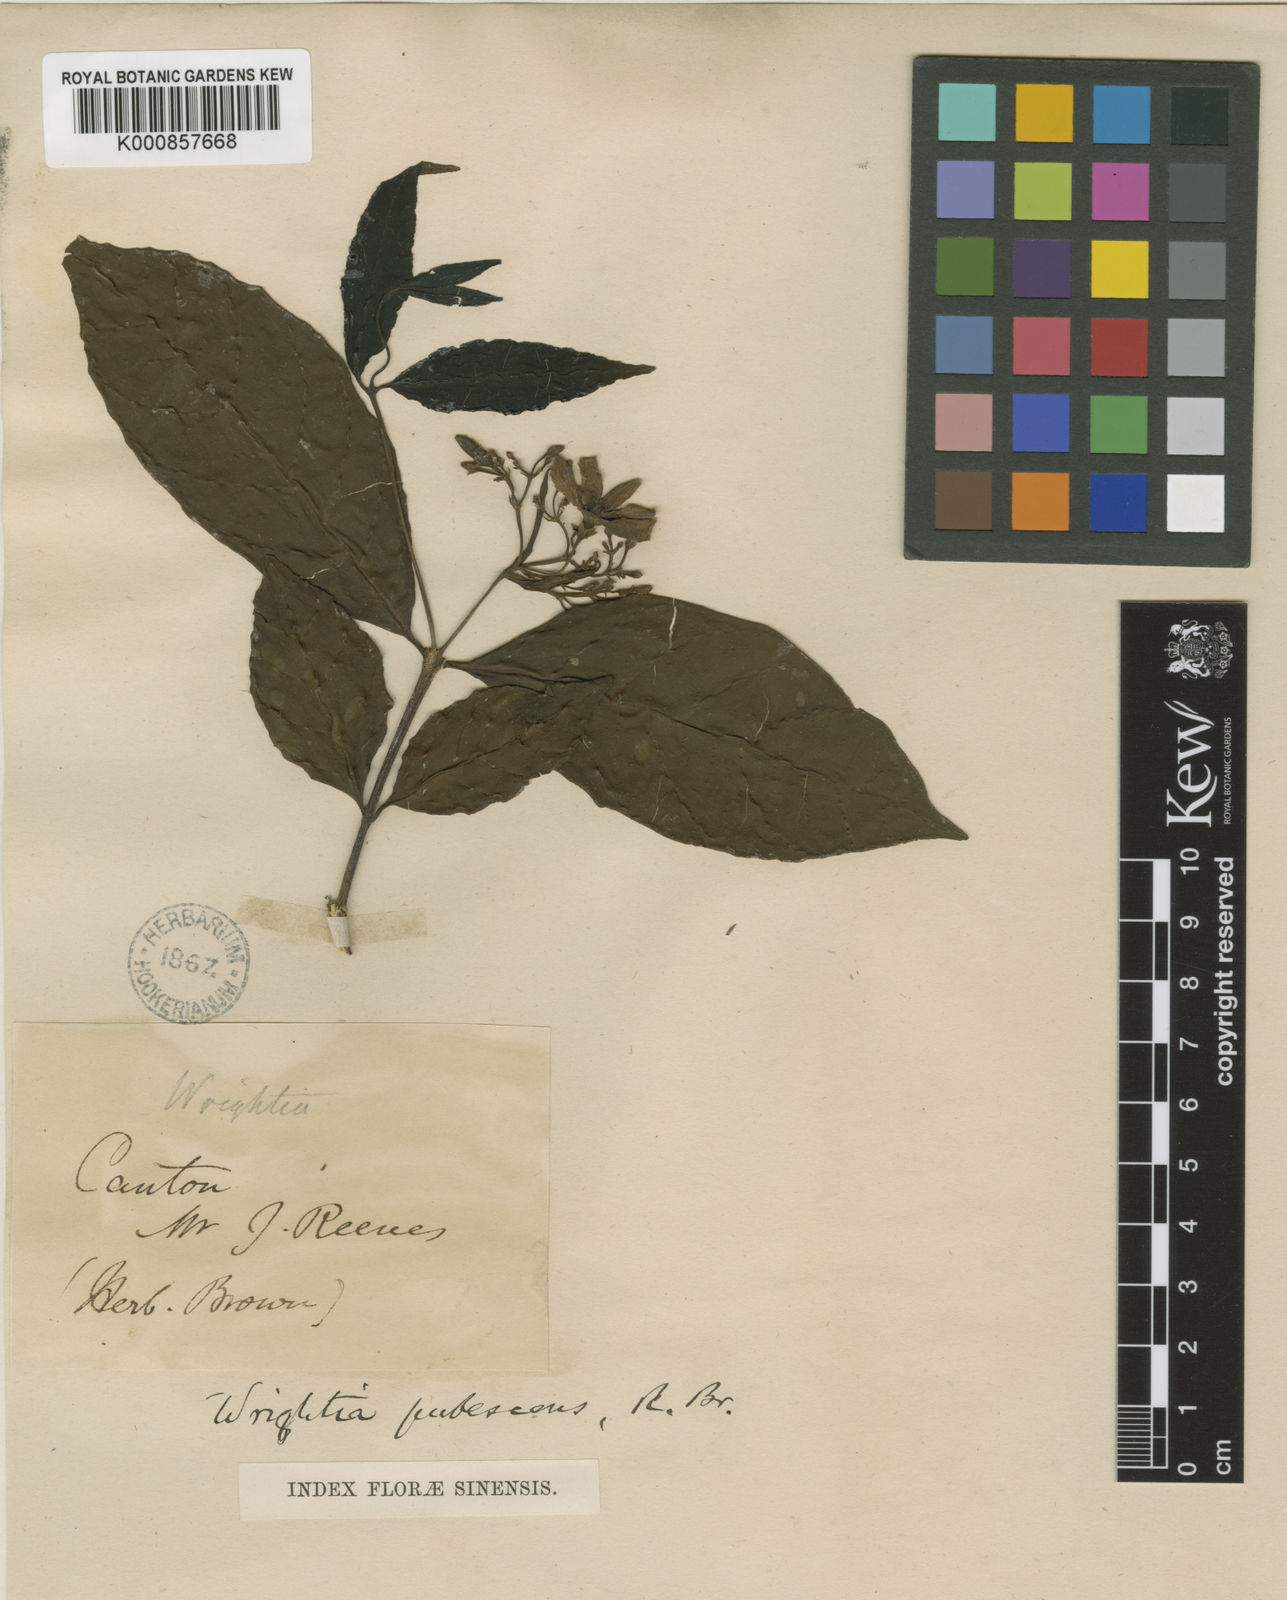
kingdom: Plantae
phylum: Tracheophyta
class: Magnoliopsida
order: Gentianales
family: Apocynaceae
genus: Wrightia
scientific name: Wrightia pubescens
